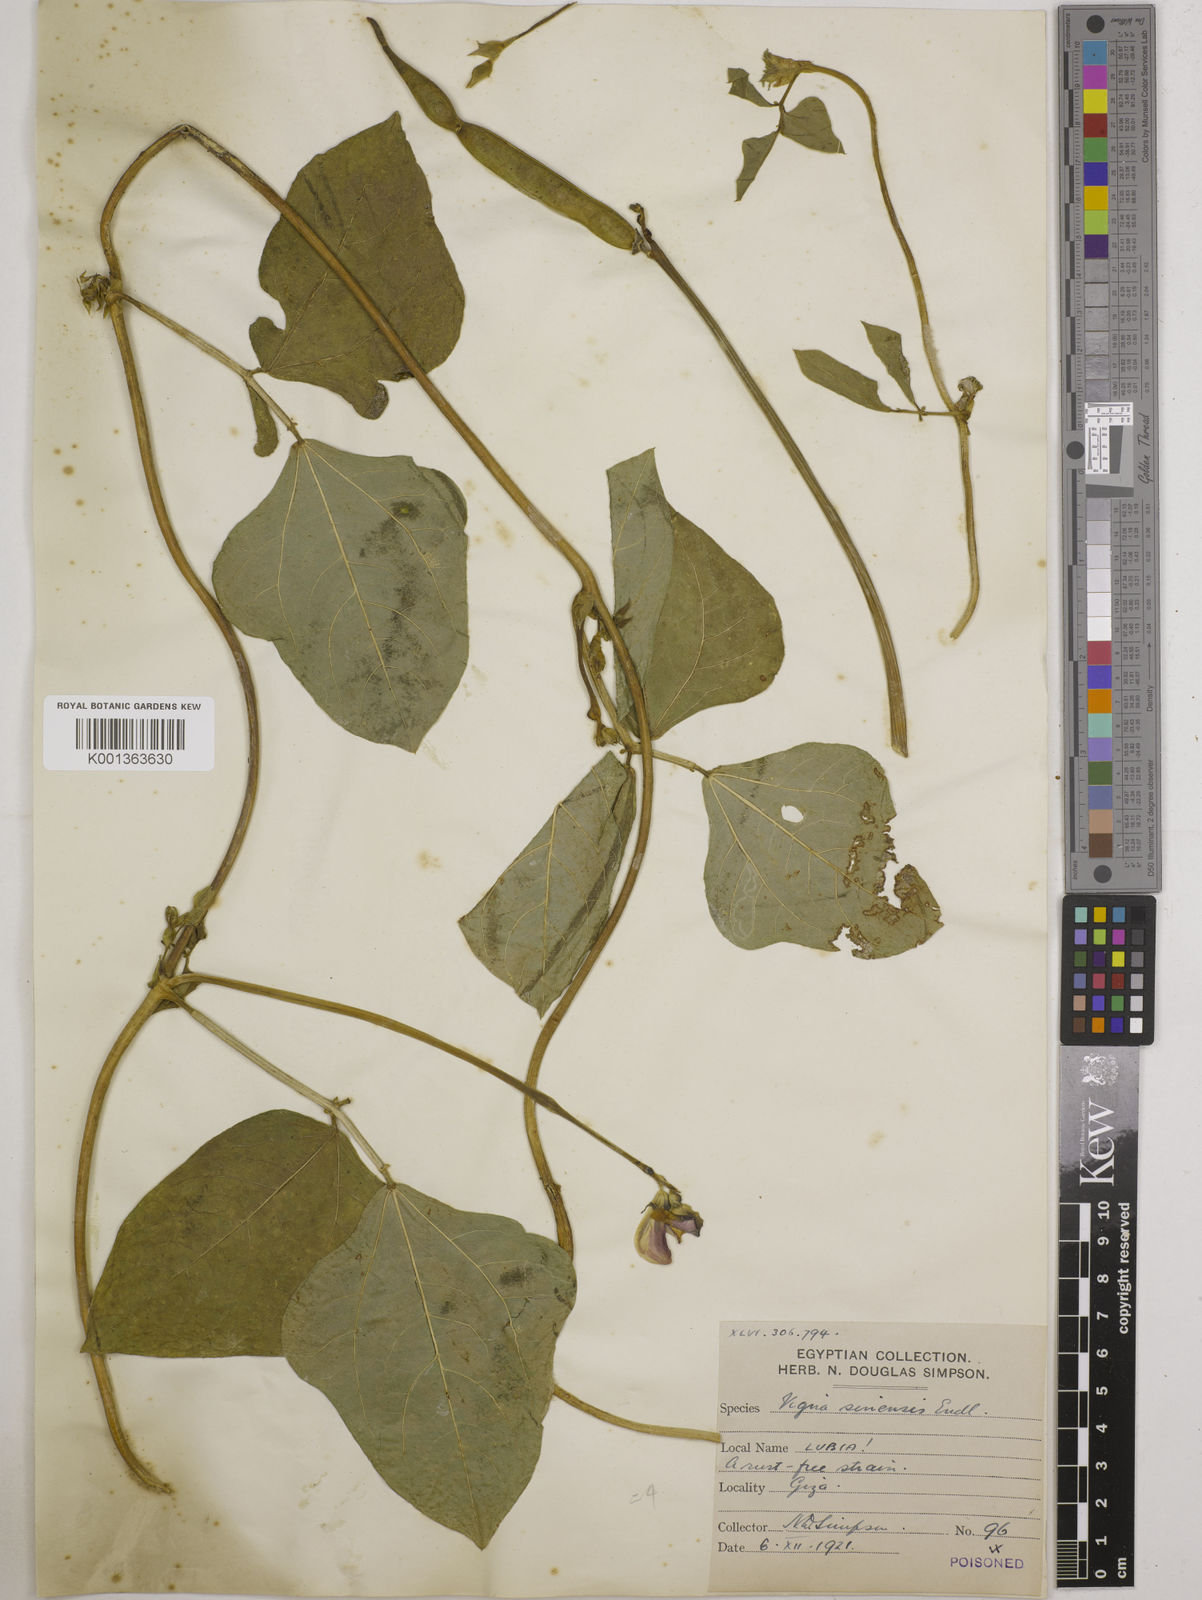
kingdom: Plantae
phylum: Tracheophyta
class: Magnoliopsida
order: Fabales
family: Fabaceae
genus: Vigna
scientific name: Vigna unguiculata
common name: Cowpea
